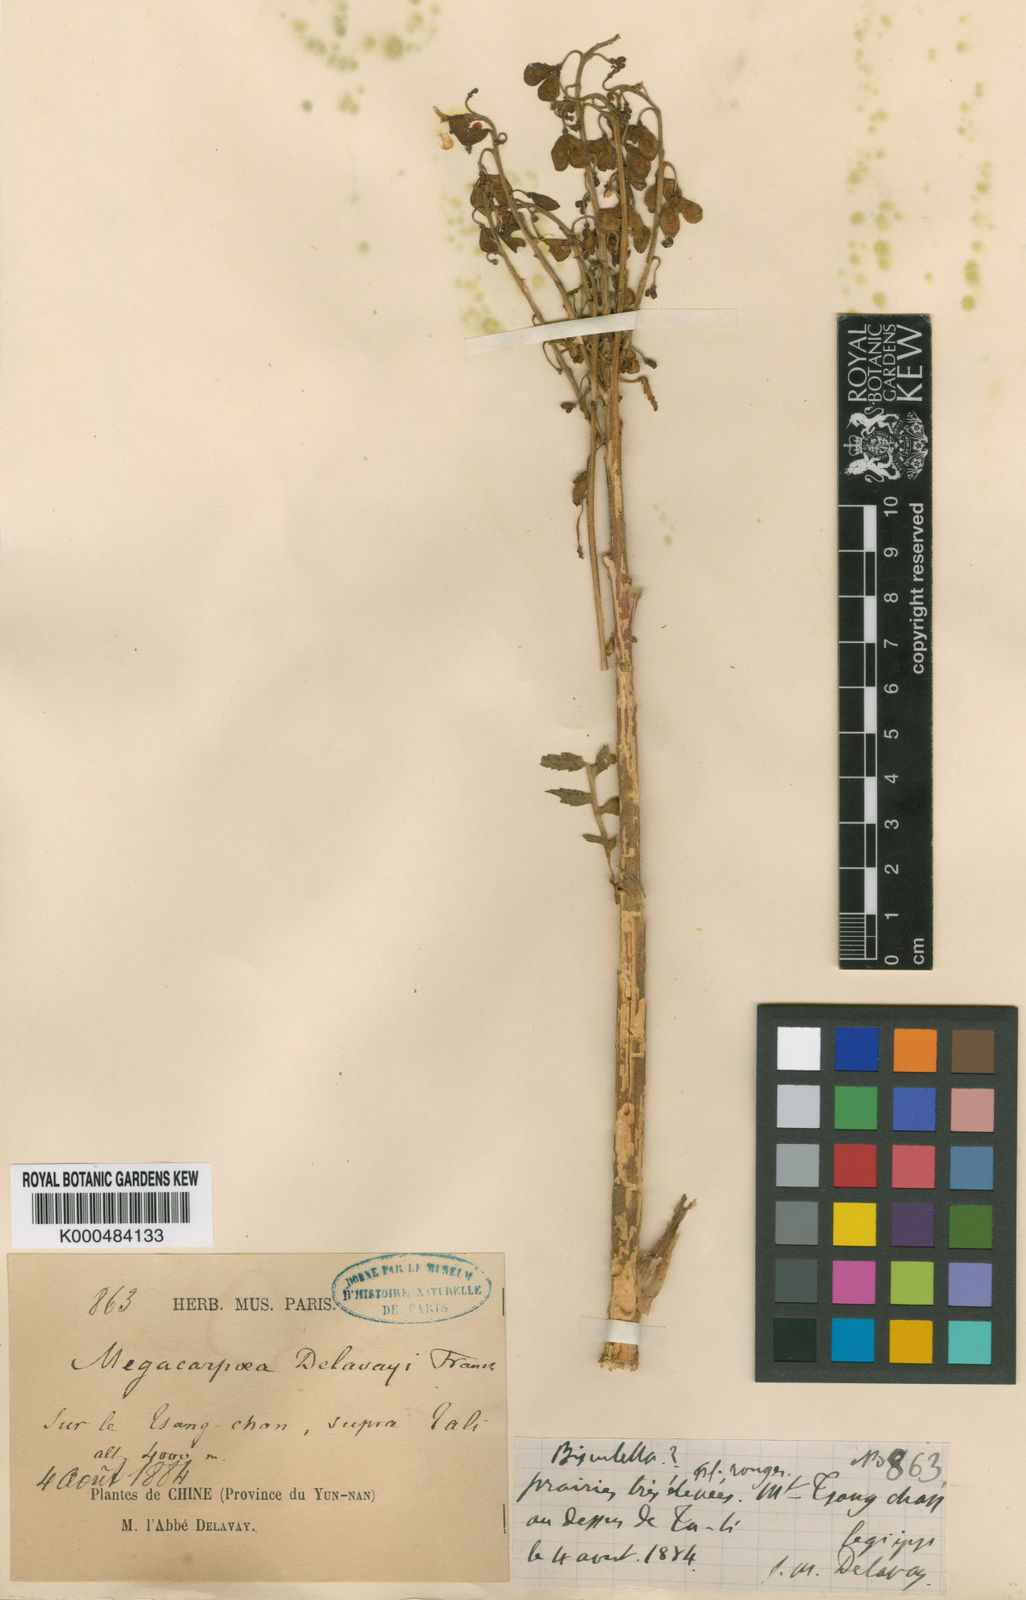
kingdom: Plantae
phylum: Tracheophyta
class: Magnoliopsida
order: Brassicales
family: Brassicaceae
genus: Megacarpaea
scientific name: Megacarpaea delavayi
